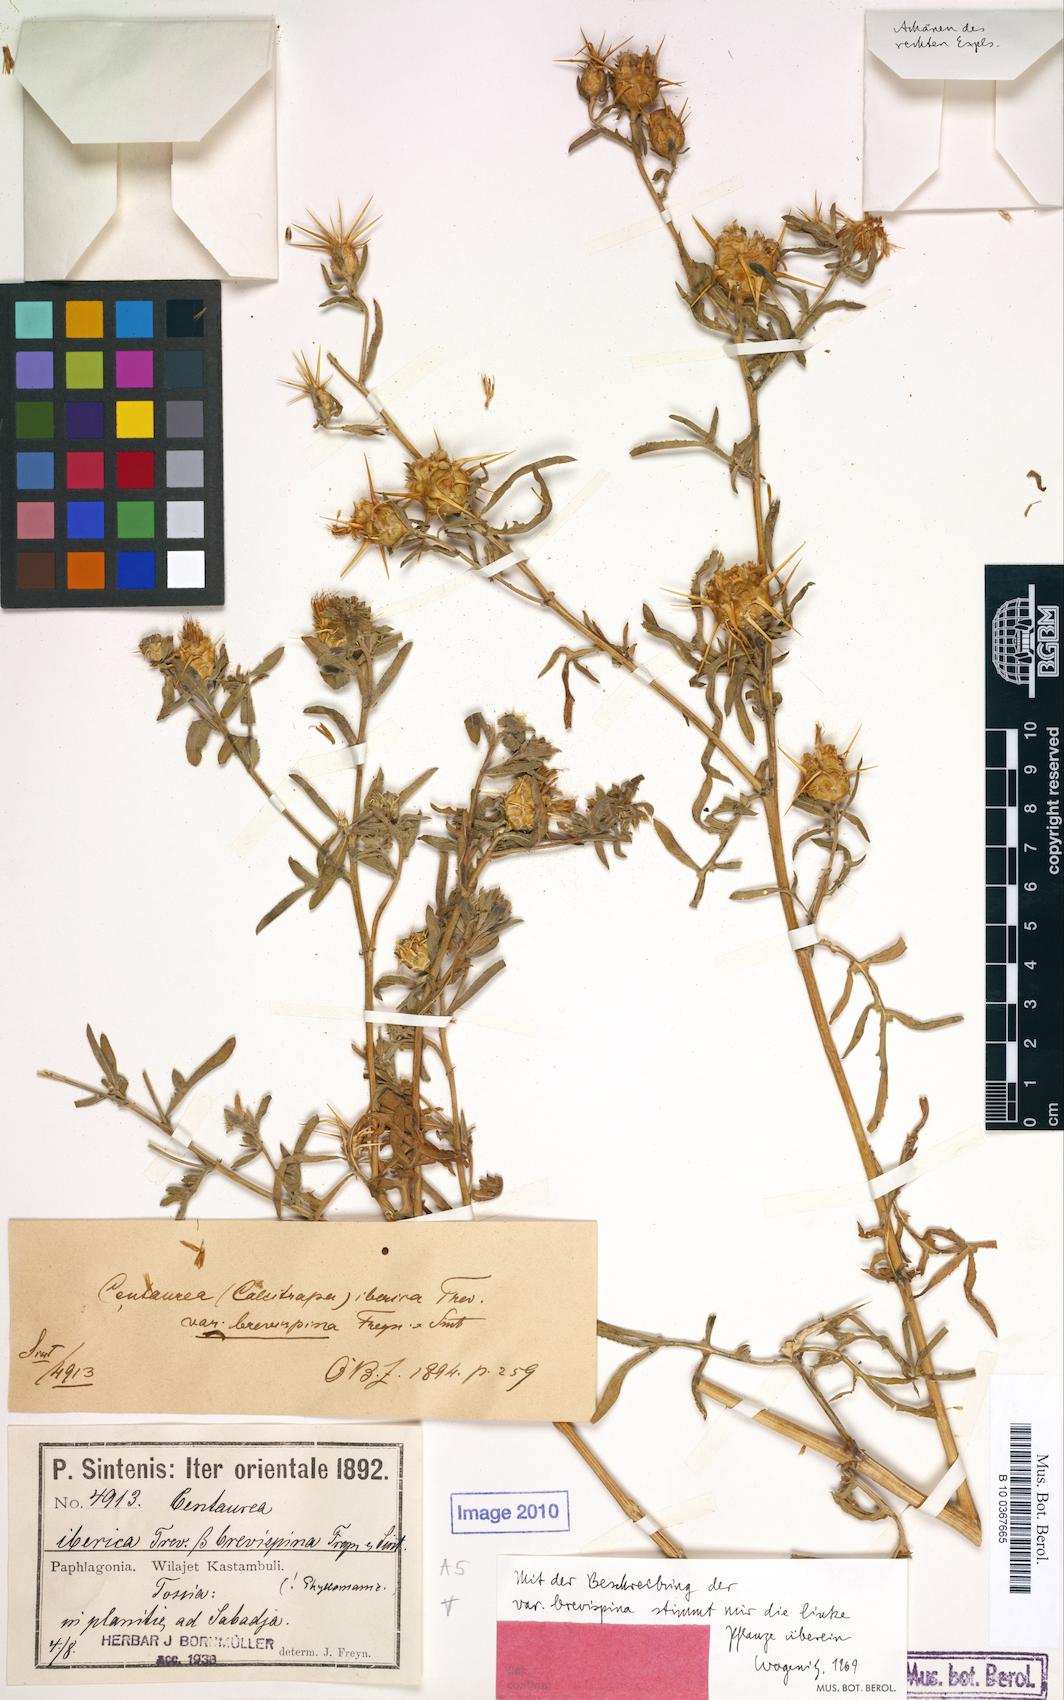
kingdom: Plantae
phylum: Tracheophyta
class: Magnoliopsida
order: Asterales
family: Asteraceae
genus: Centaurea
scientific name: Centaurea iberica
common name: Iberian knapweed
